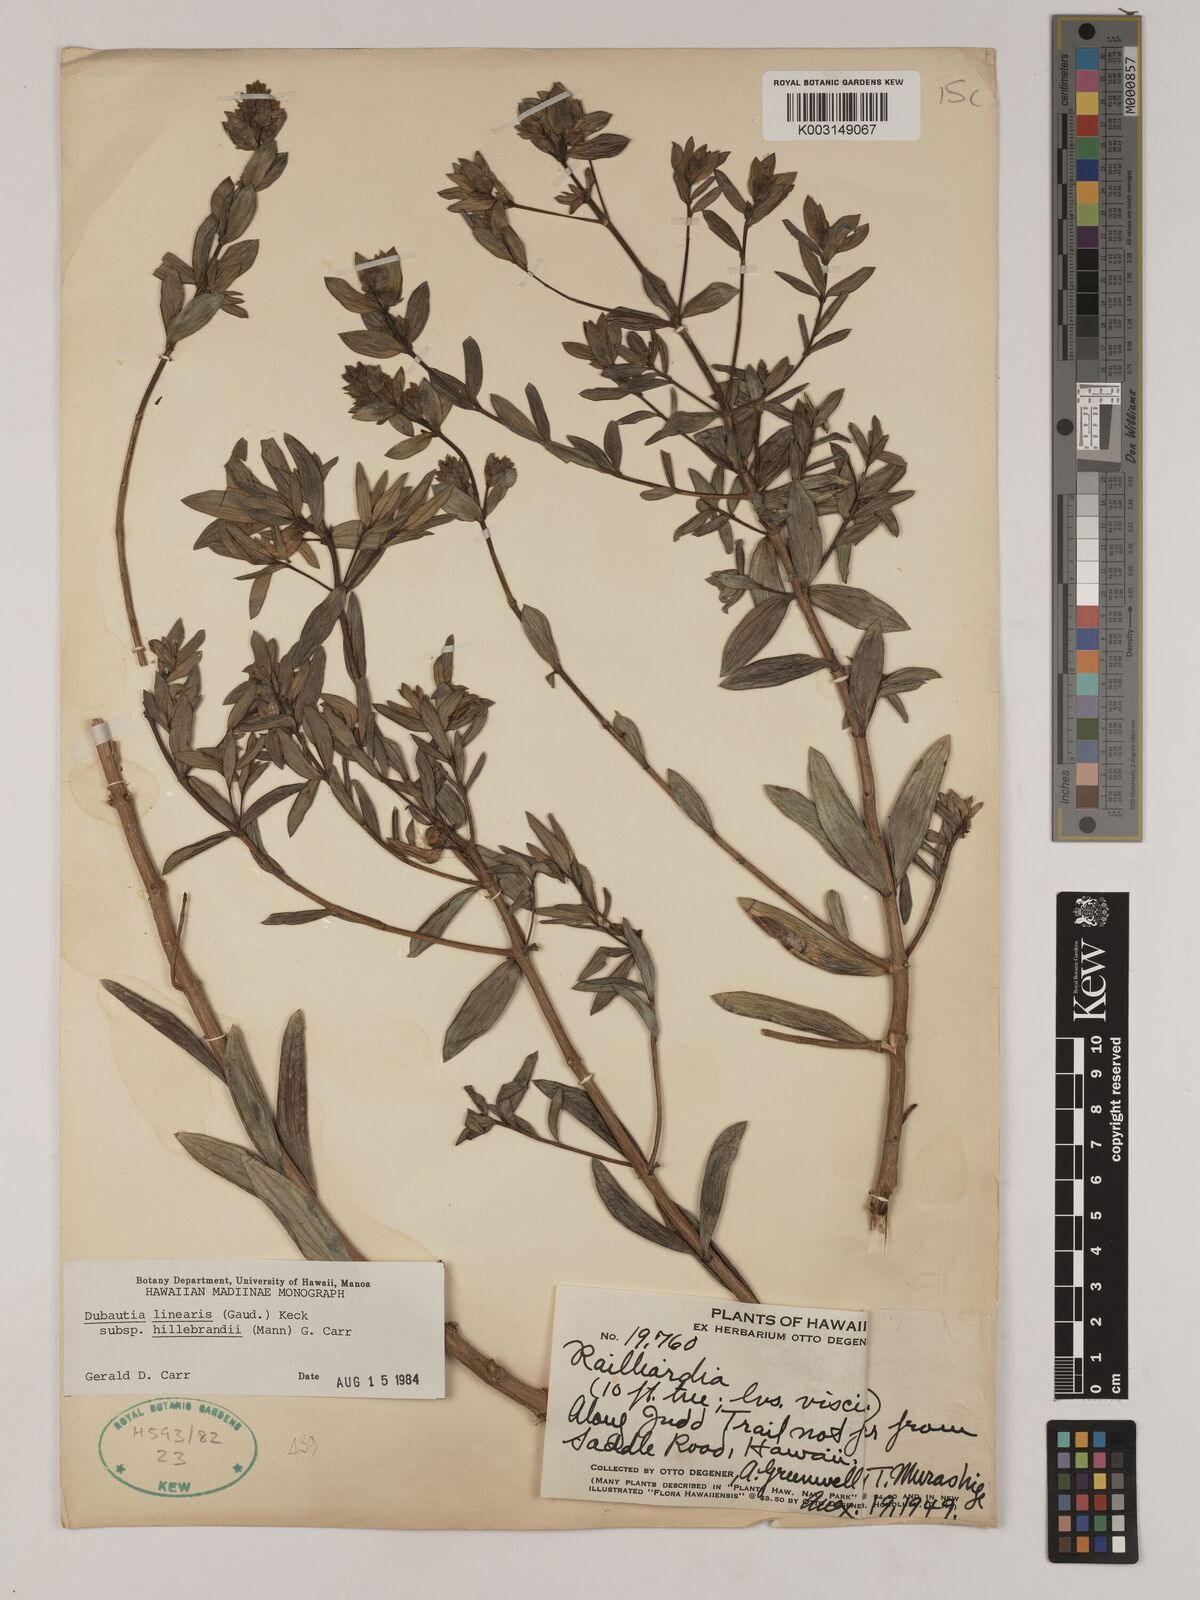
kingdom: Plantae
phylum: Tracheophyta
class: Magnoliopsida
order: Asterales
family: Asteraceae
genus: Dubautia
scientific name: Dubautia linearis
